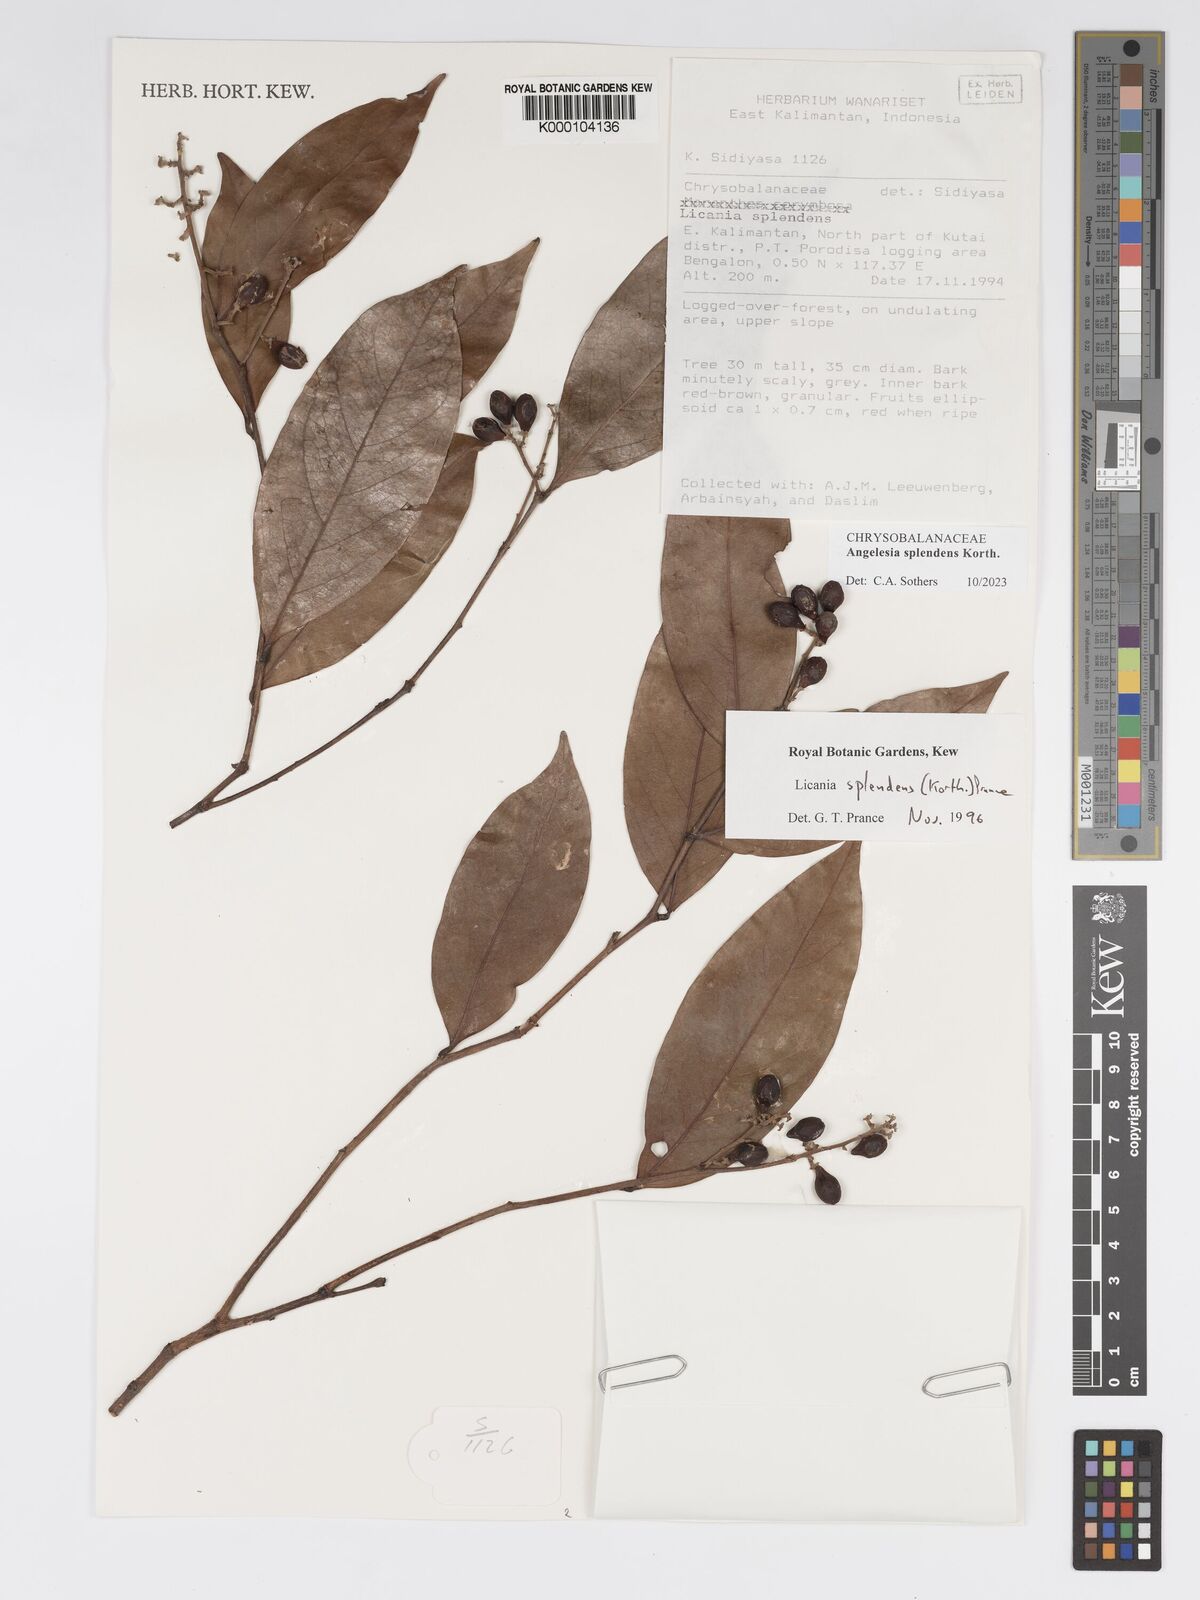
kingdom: Plantae
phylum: Tracheophyta
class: Magnoliopsida
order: Malpighiales
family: Chrysobalanaceae
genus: Angelesia
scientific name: Angelesia splendens
